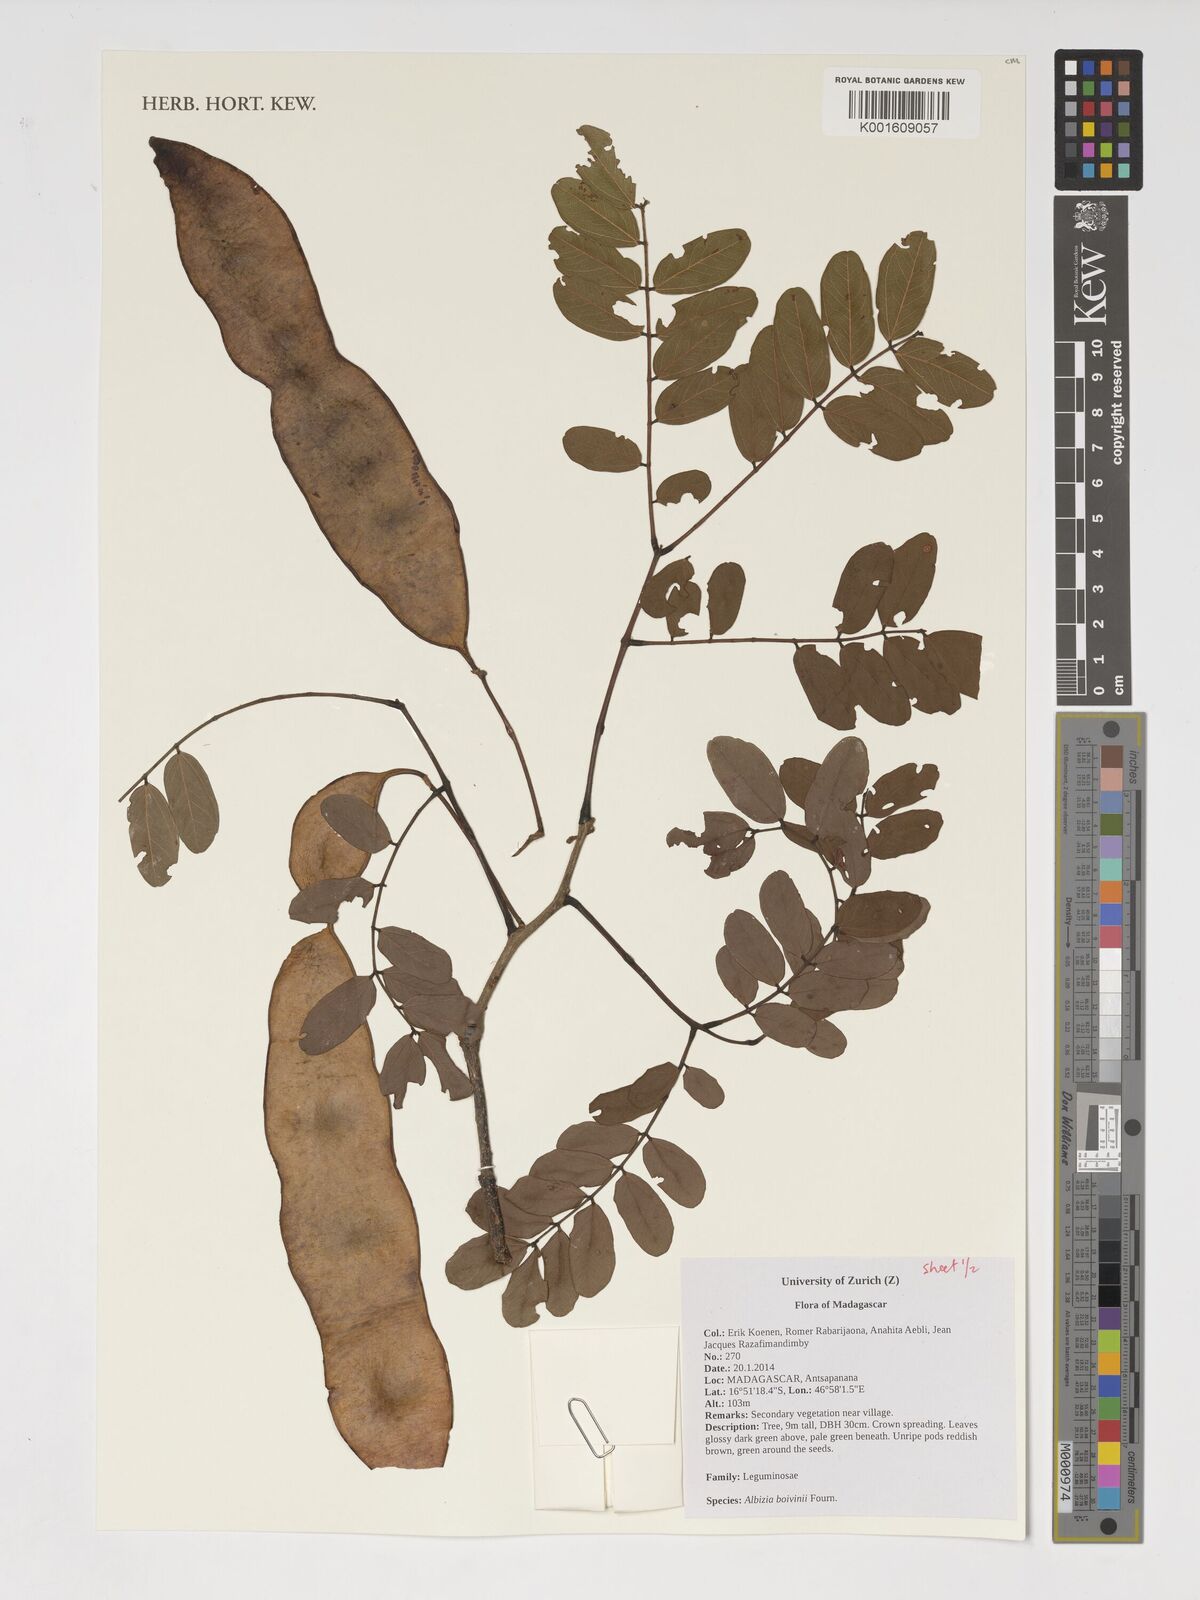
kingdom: Plantae
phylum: Tracheophyta
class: Magnoliopsida
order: Fabales
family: Fabaceae
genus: Albizia
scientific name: Albizia boivinii
